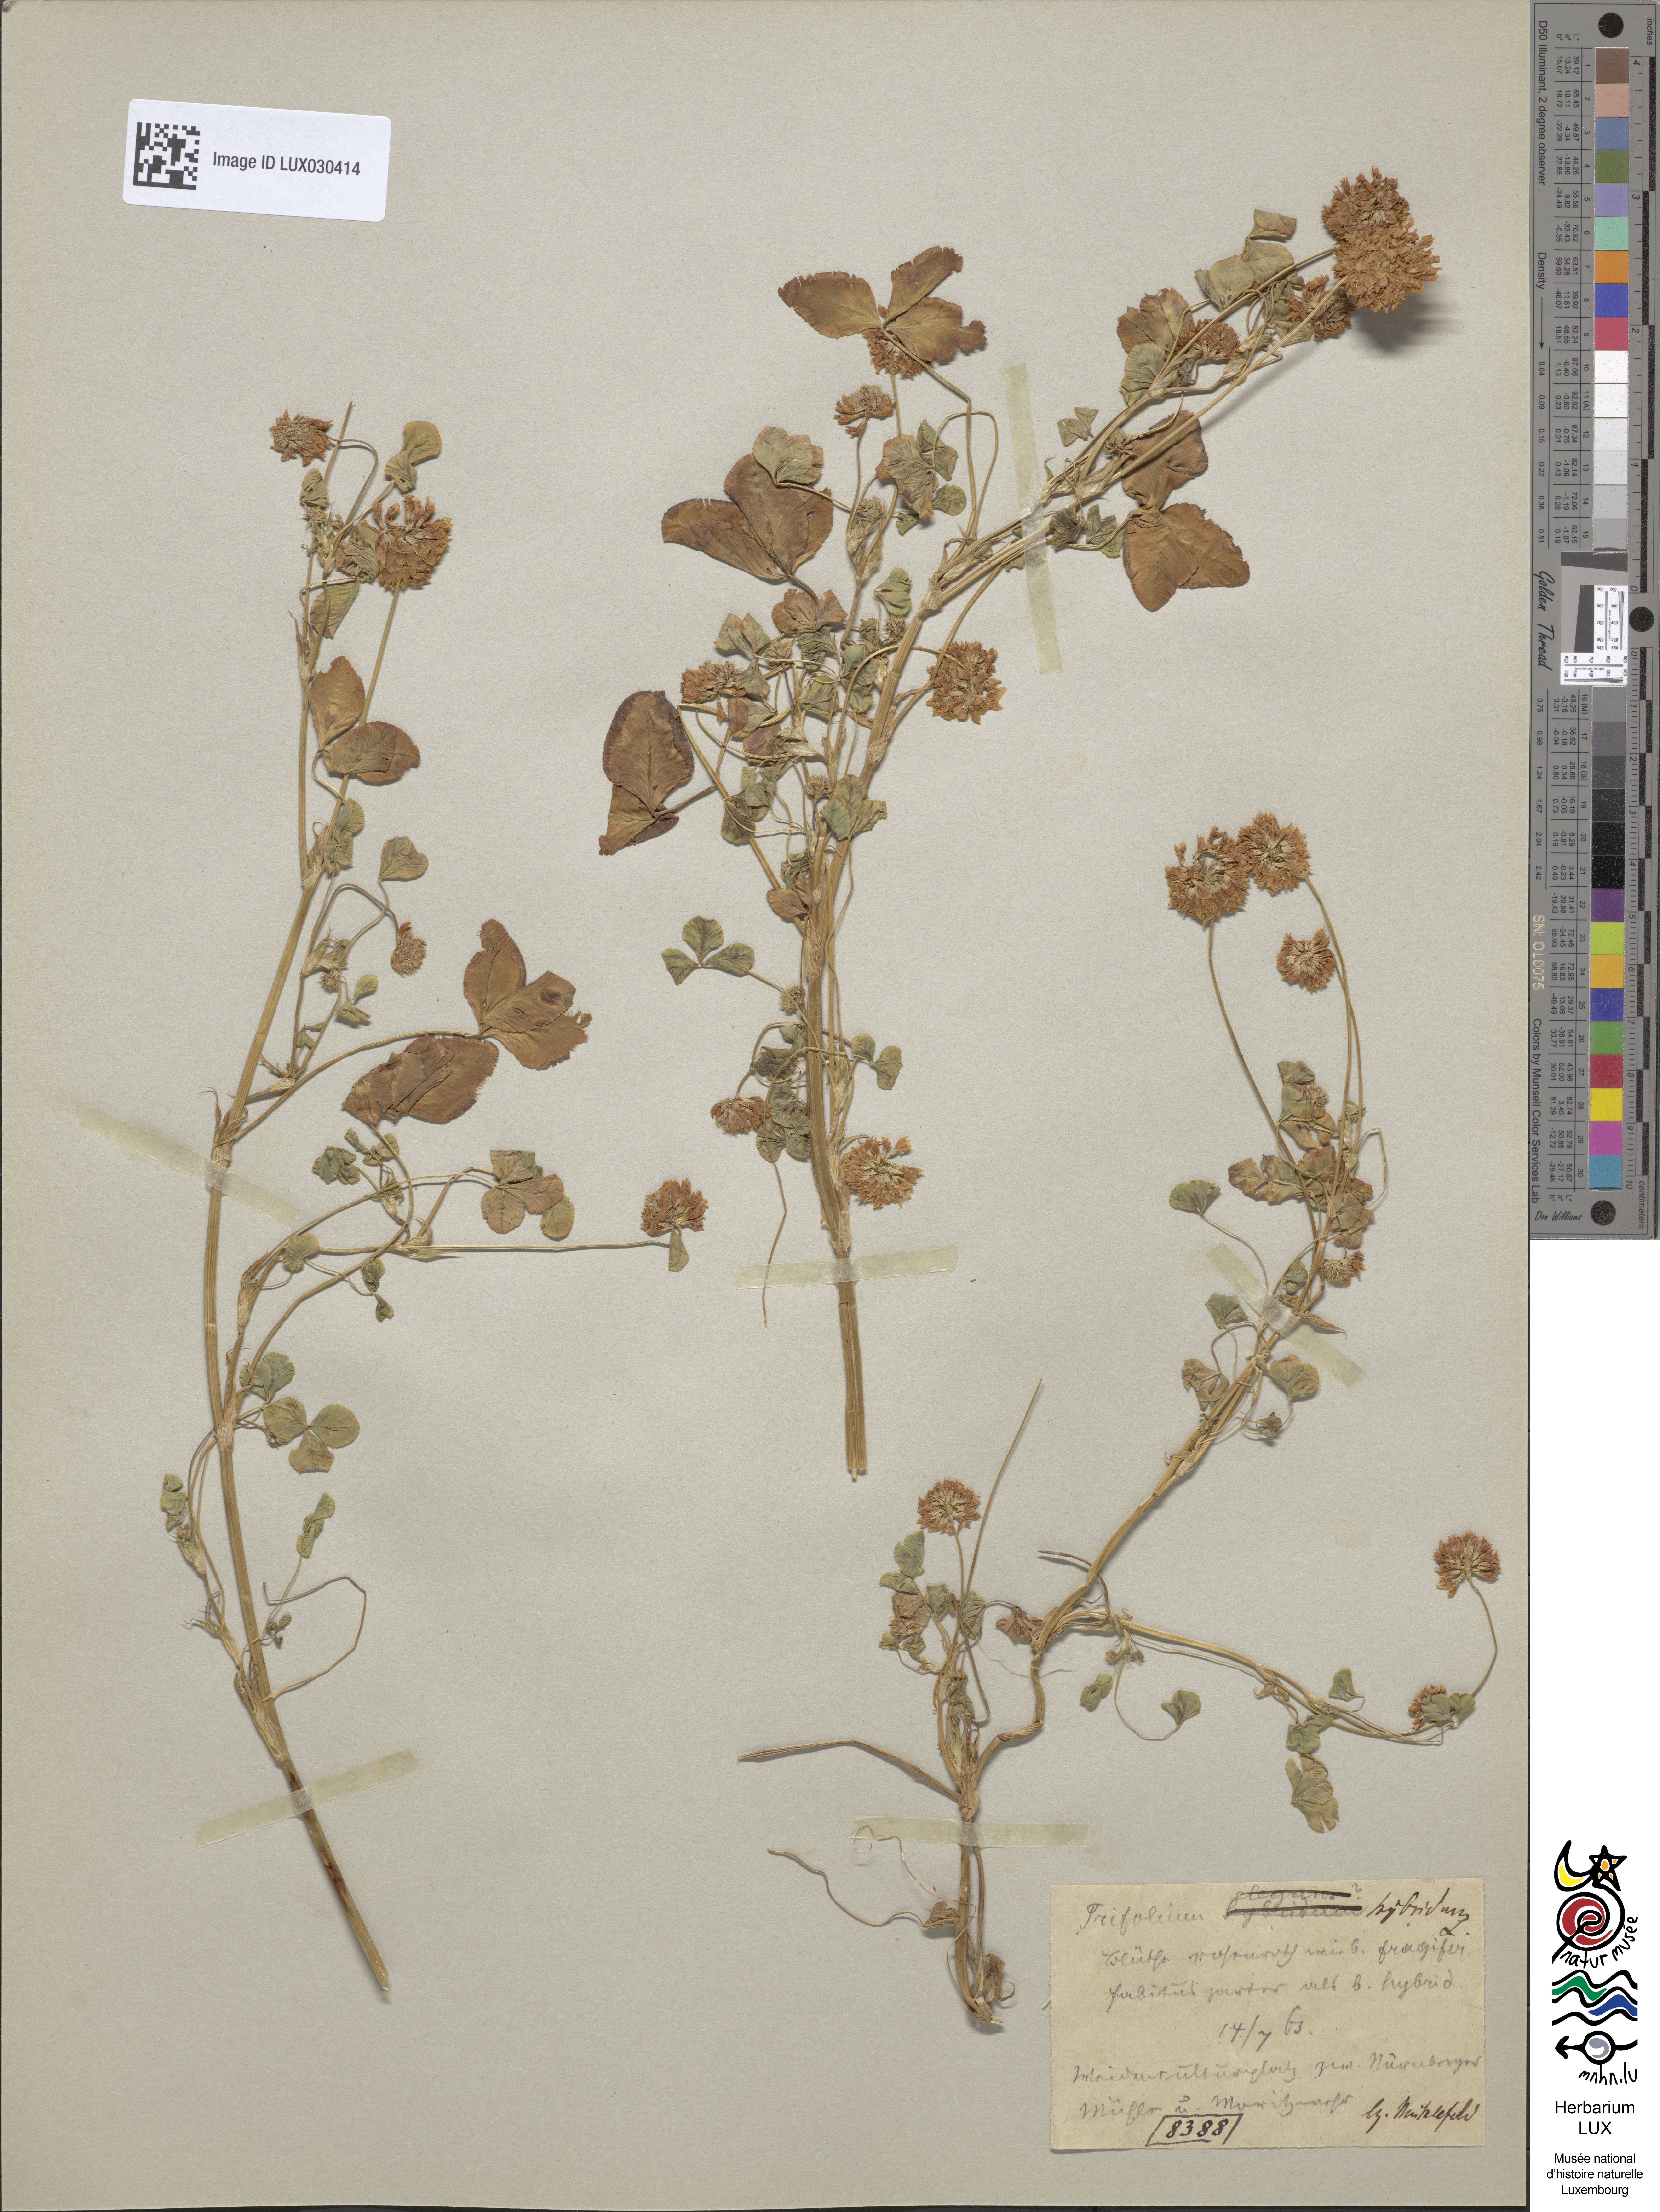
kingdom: Plantae
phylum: Tracheophyta
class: Magnoliopsida
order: Fabales
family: Fabaceae
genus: Trifolium
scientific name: Trifolium hybridum
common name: Alsike clover
